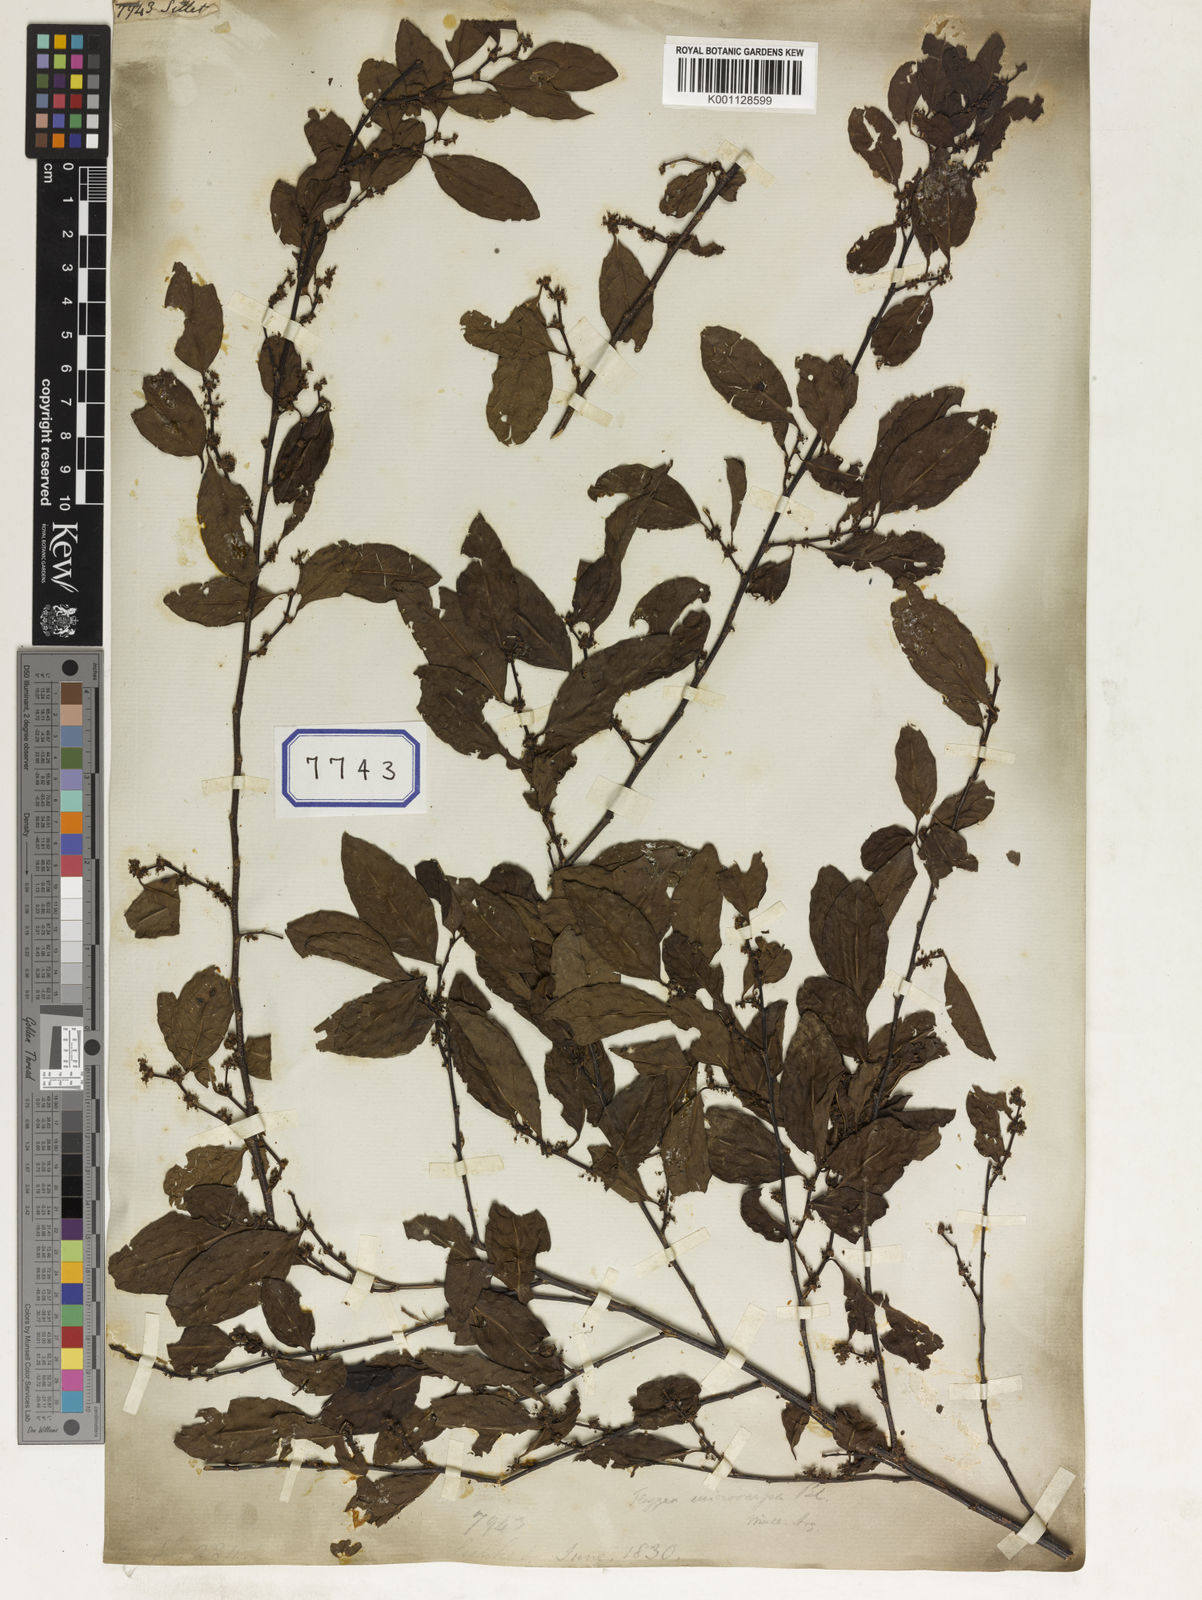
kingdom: Plantae
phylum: Tracheophyta
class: Magnoliopsida
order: Malpighiales
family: Euphorbiaceae
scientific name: Euphorbiaceae
